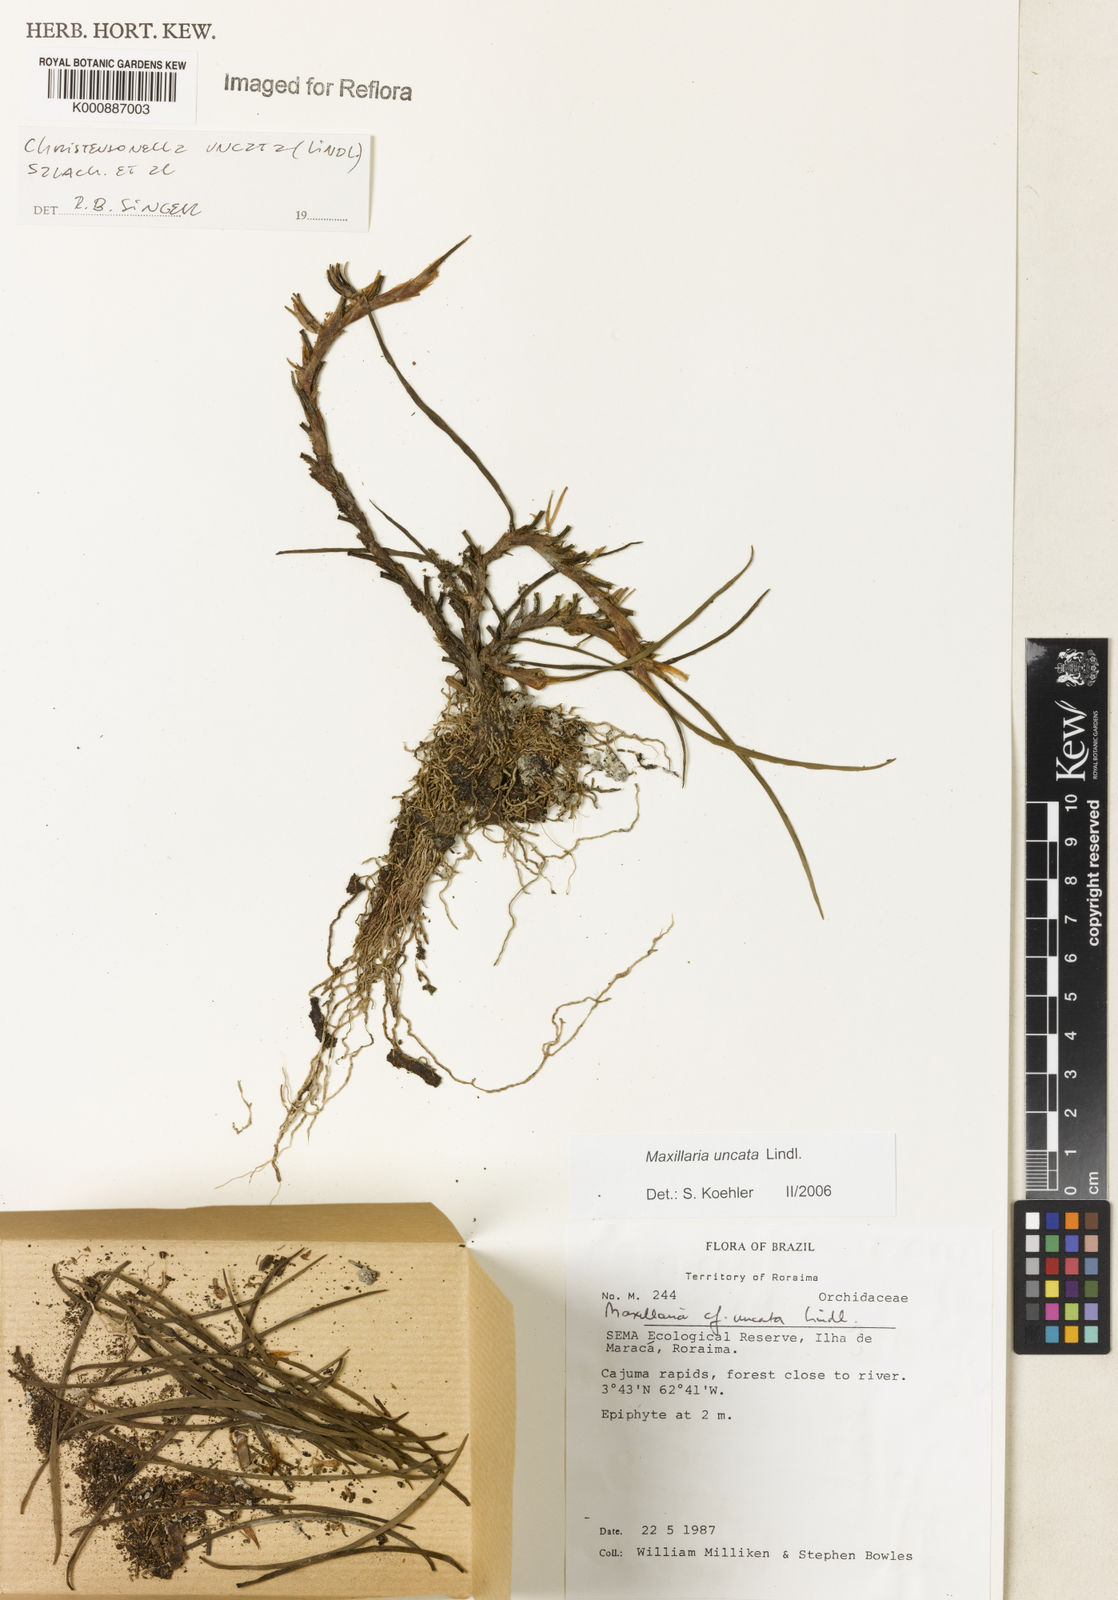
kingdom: Plantae
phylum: Tracheophyta
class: Liliopsida
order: Asparagales
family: Orchidaceae
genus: Maxillaria
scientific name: Maxillaria uncata
